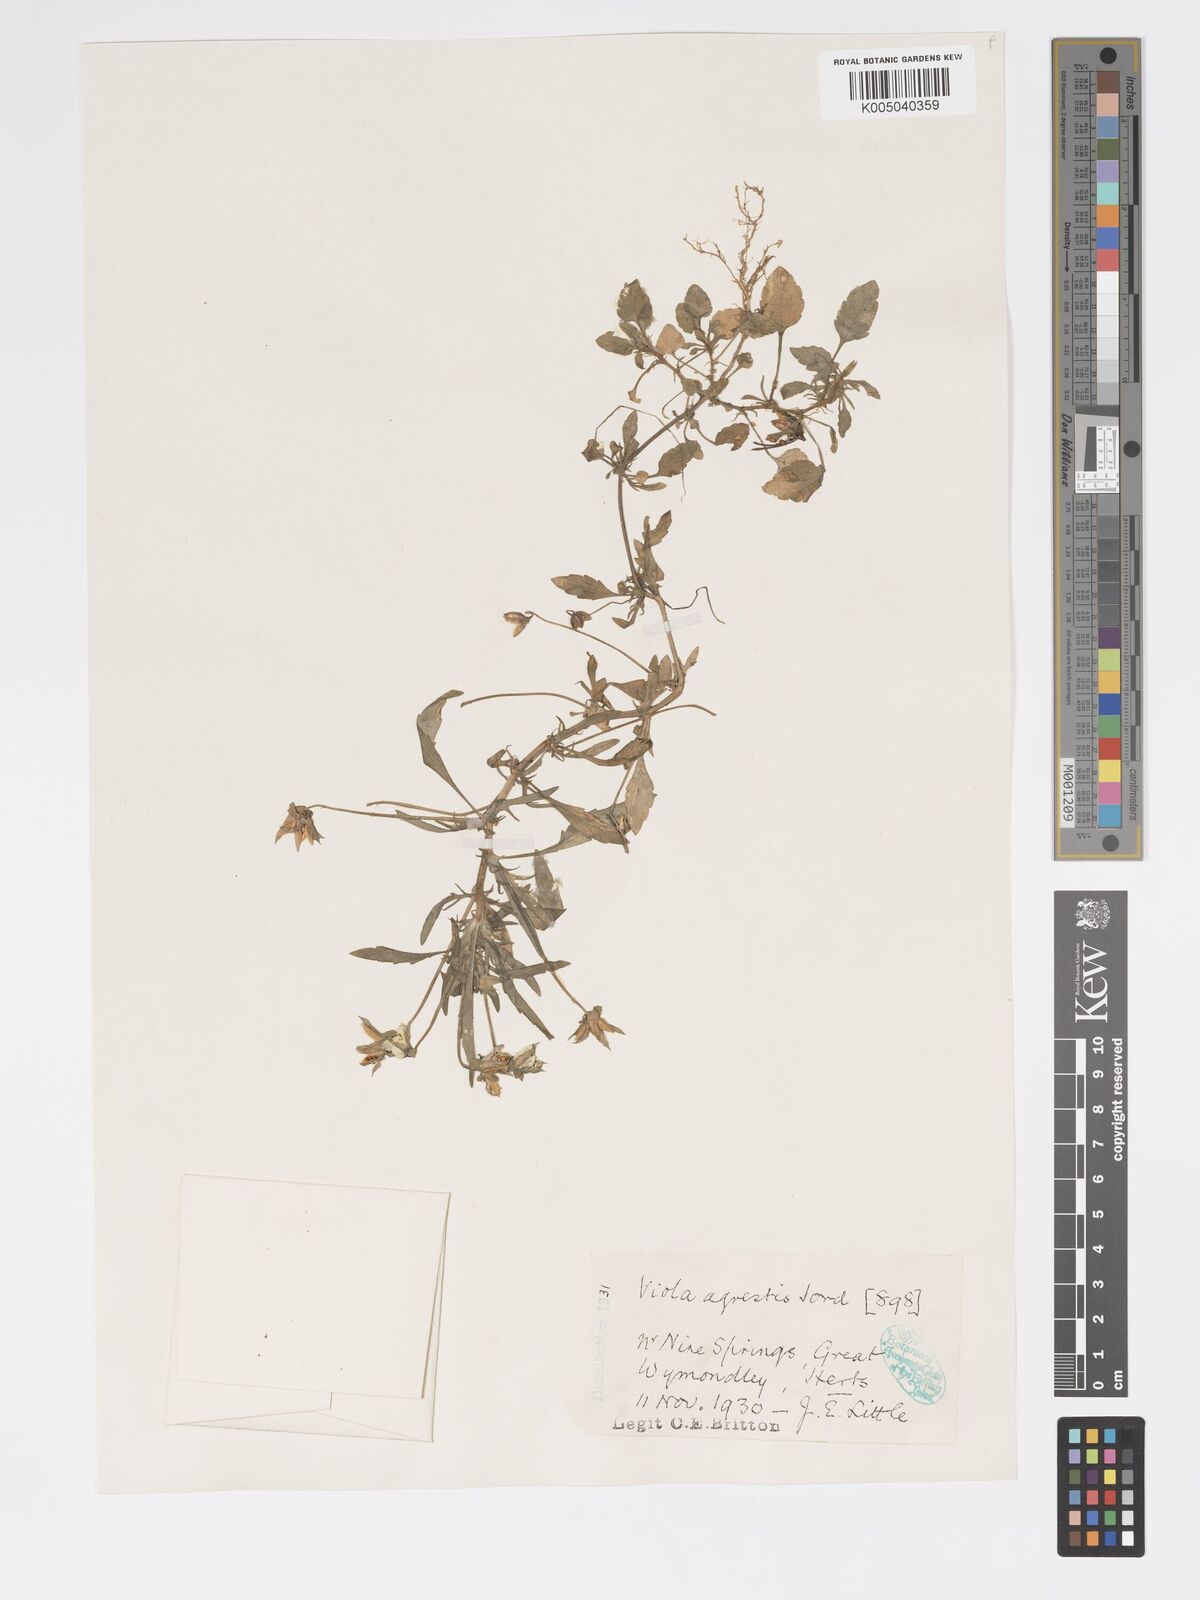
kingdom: Plantae
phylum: Tracheophyta
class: Magnoliopsida
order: Malpighiales
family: Violaceae
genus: Viola
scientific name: Viola arvensis
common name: Field pansy
